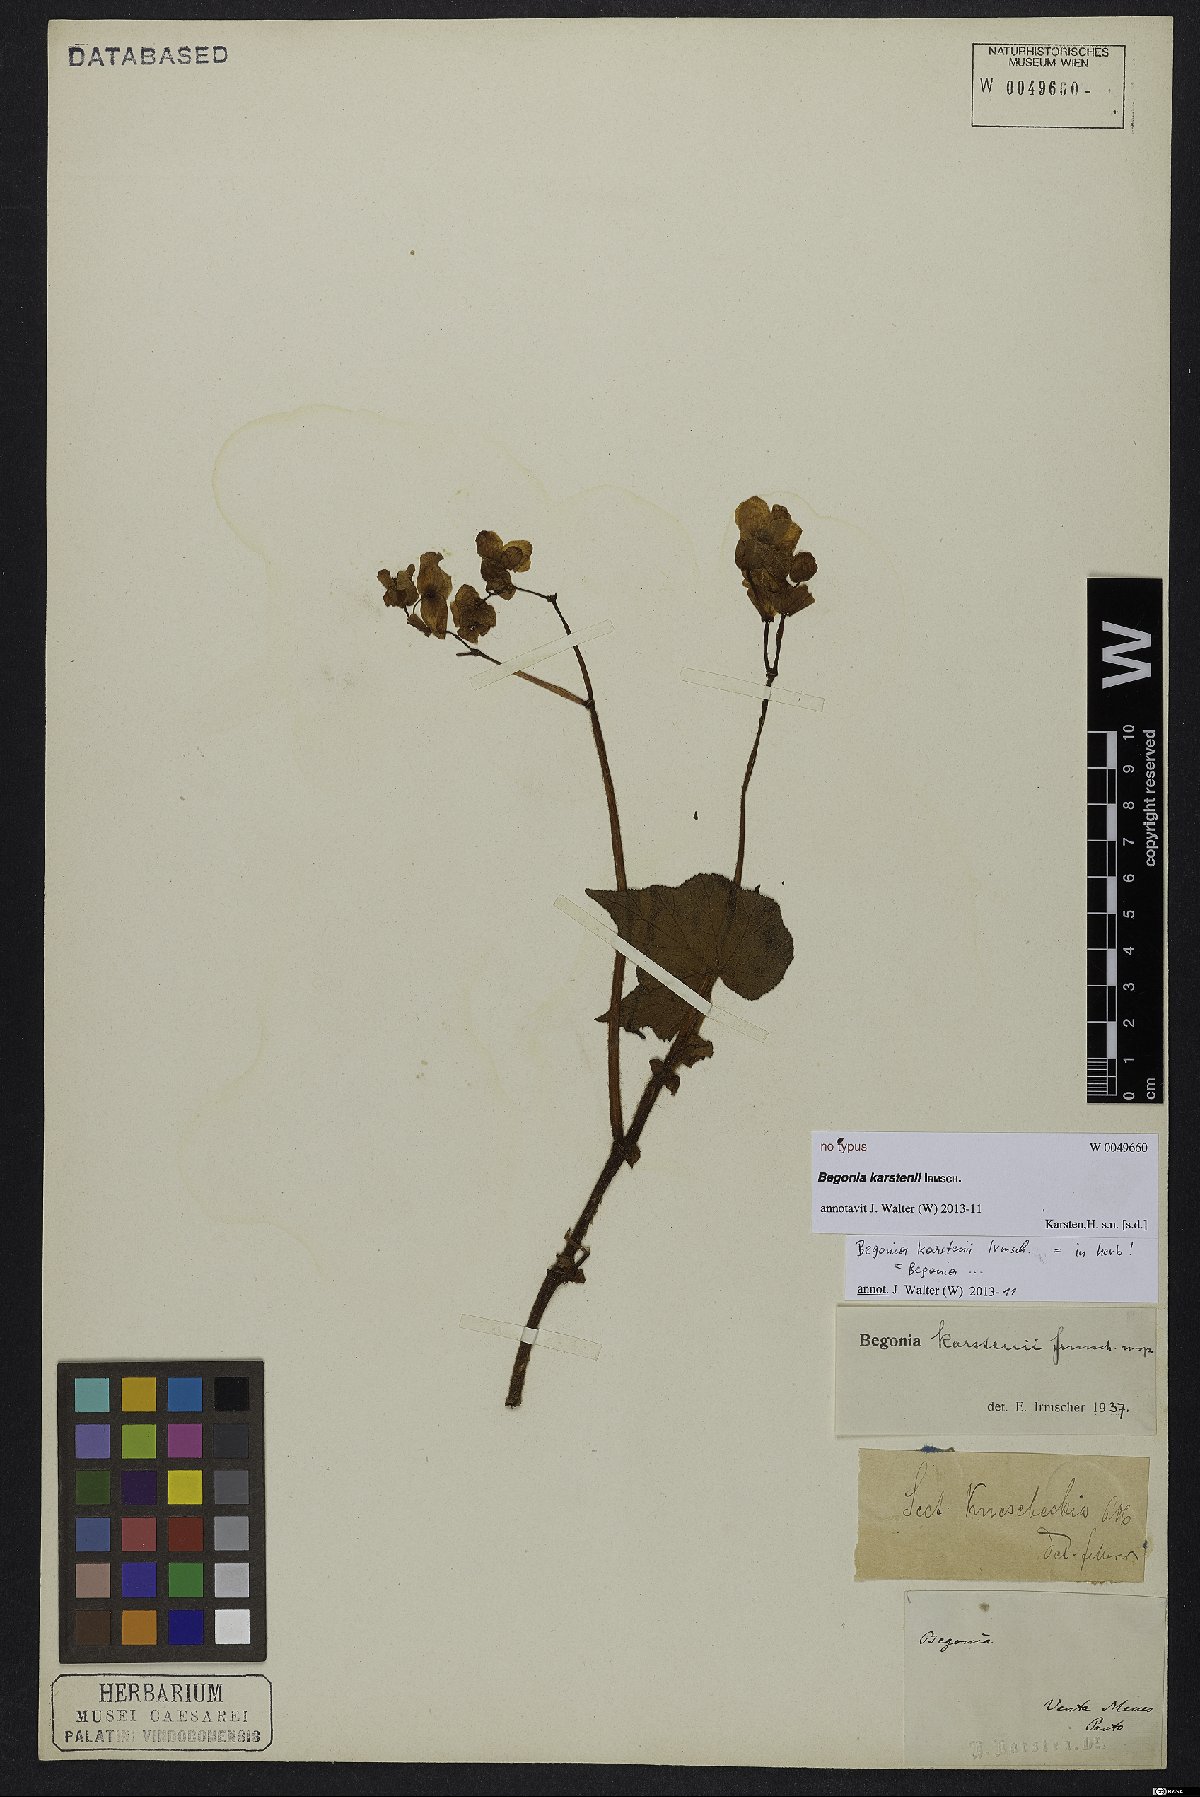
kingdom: Plantae
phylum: Tracheophyta
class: Magnoliopsida
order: Cucurbitales
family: Begoniaceae
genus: Begonia
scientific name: Begonia
